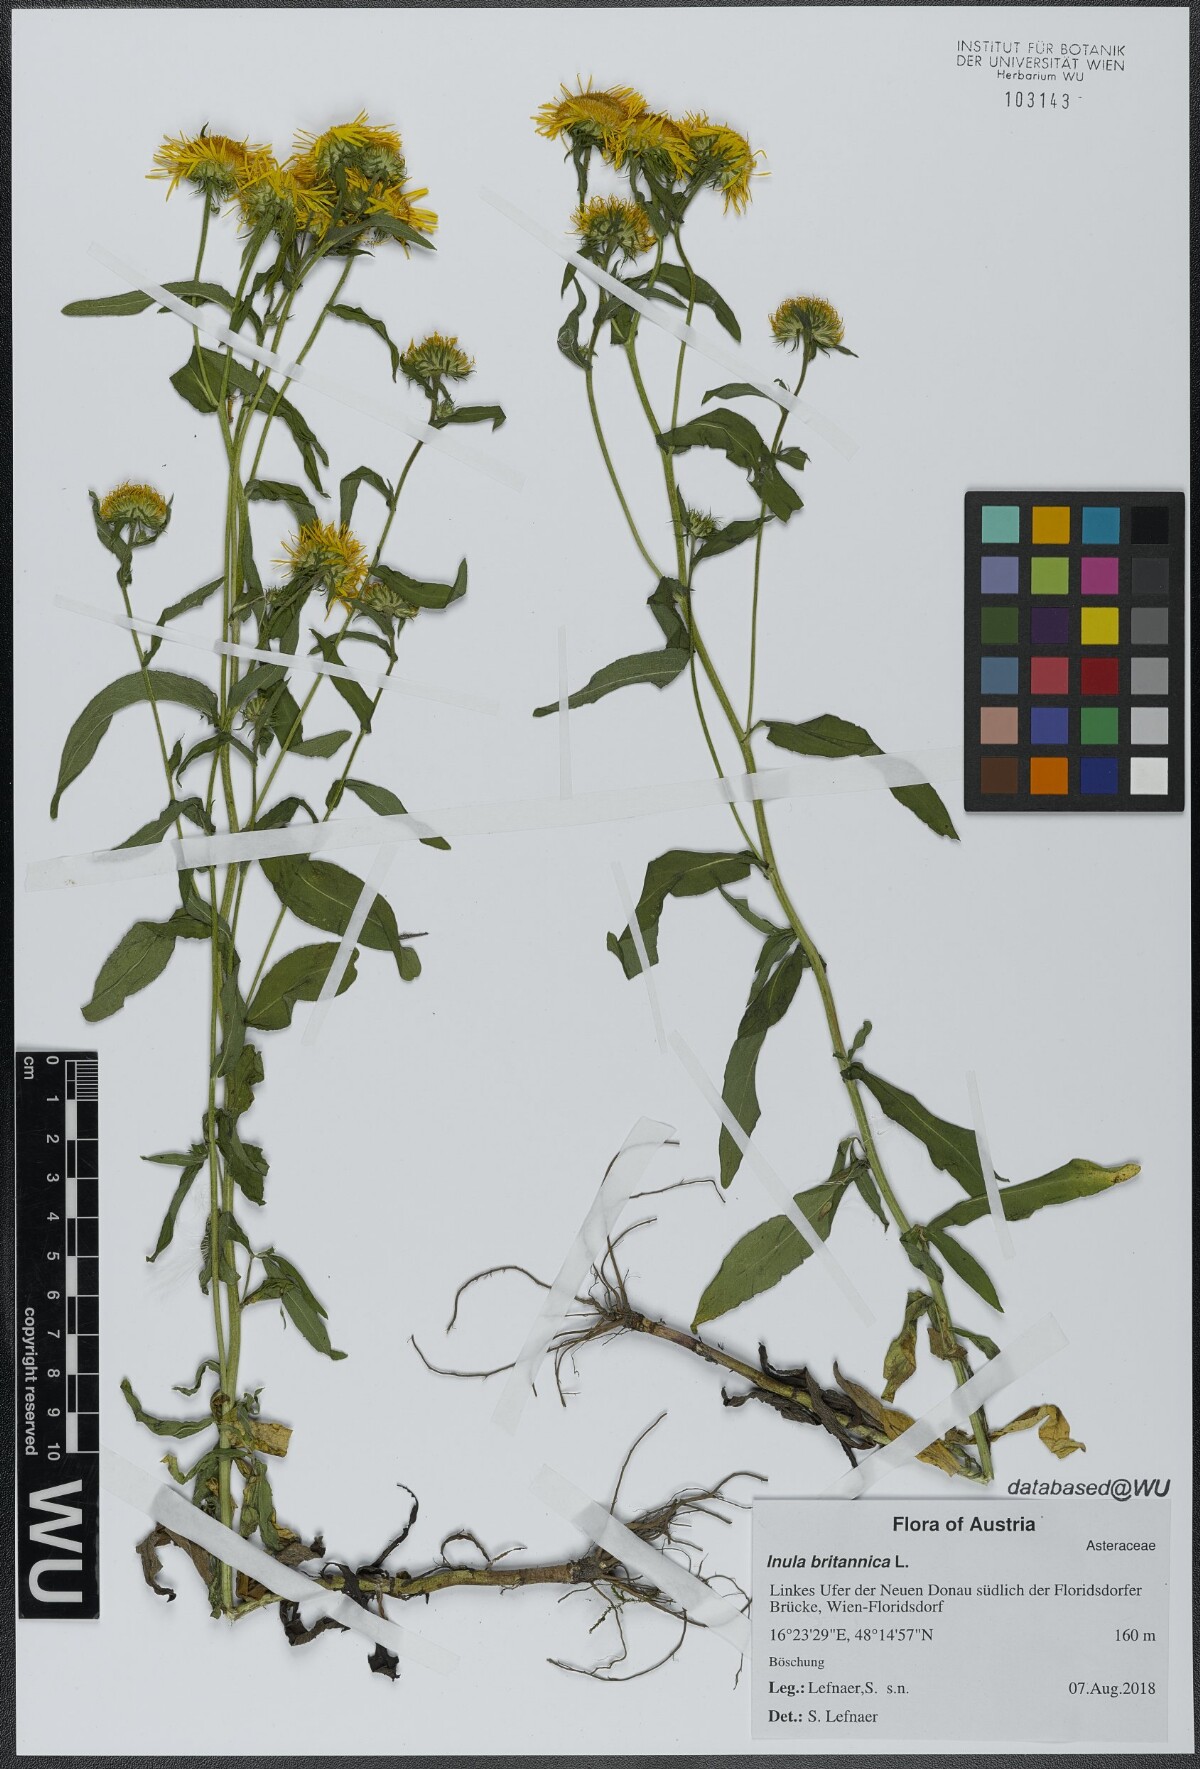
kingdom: Plantae
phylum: Tracheophyta
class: Magnoliopsida
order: Asterales
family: Asteraceae
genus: Pentanema
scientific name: Pentanema britannicum
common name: British elecampane
